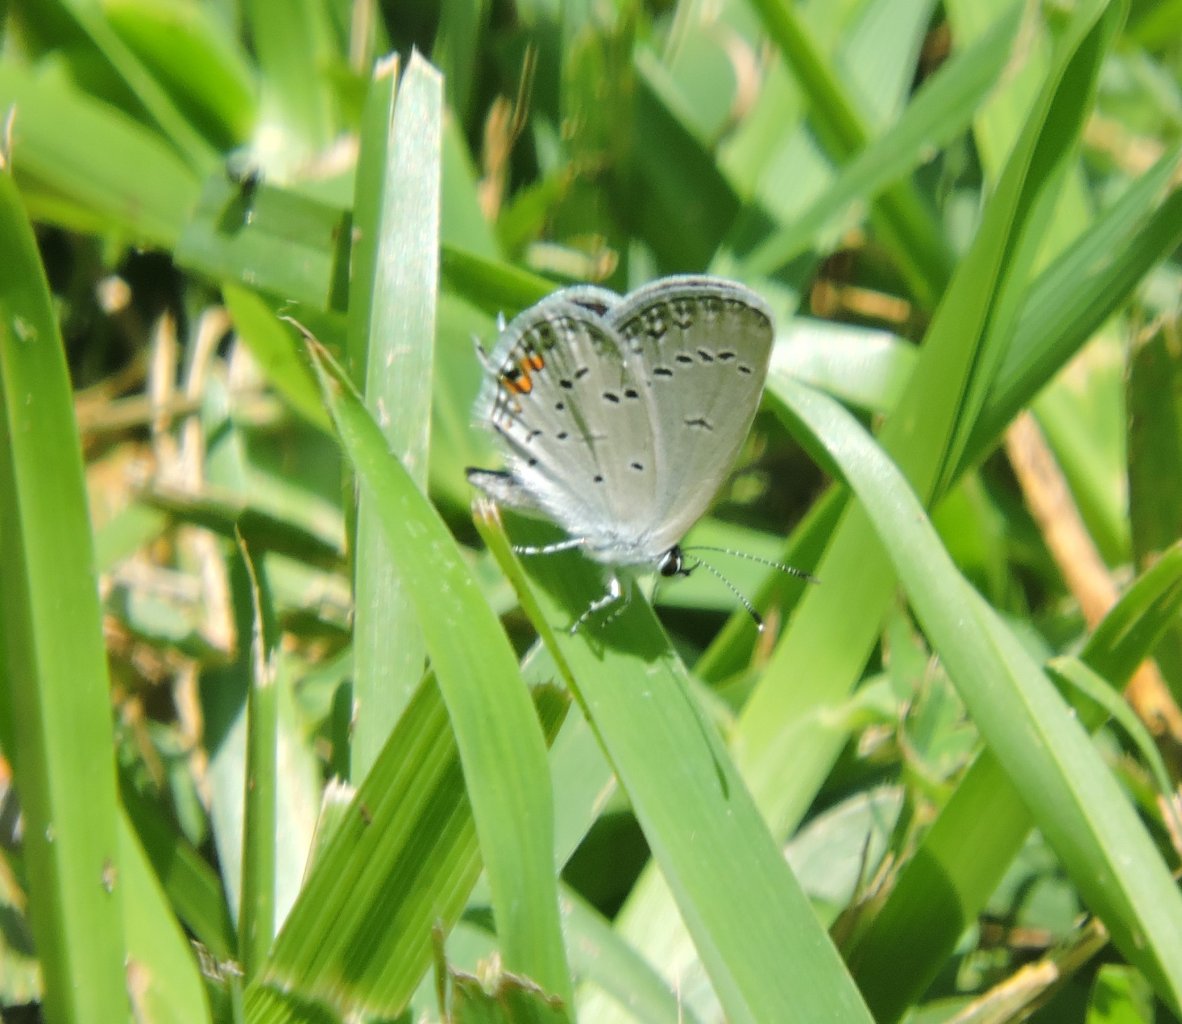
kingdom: Animalia
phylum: Arthropoda
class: Insecta
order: Lepidoptera
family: Lycaenidae
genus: Elkalyce
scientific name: Elkalyce comyntas
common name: Eastern Tailed-Blue
